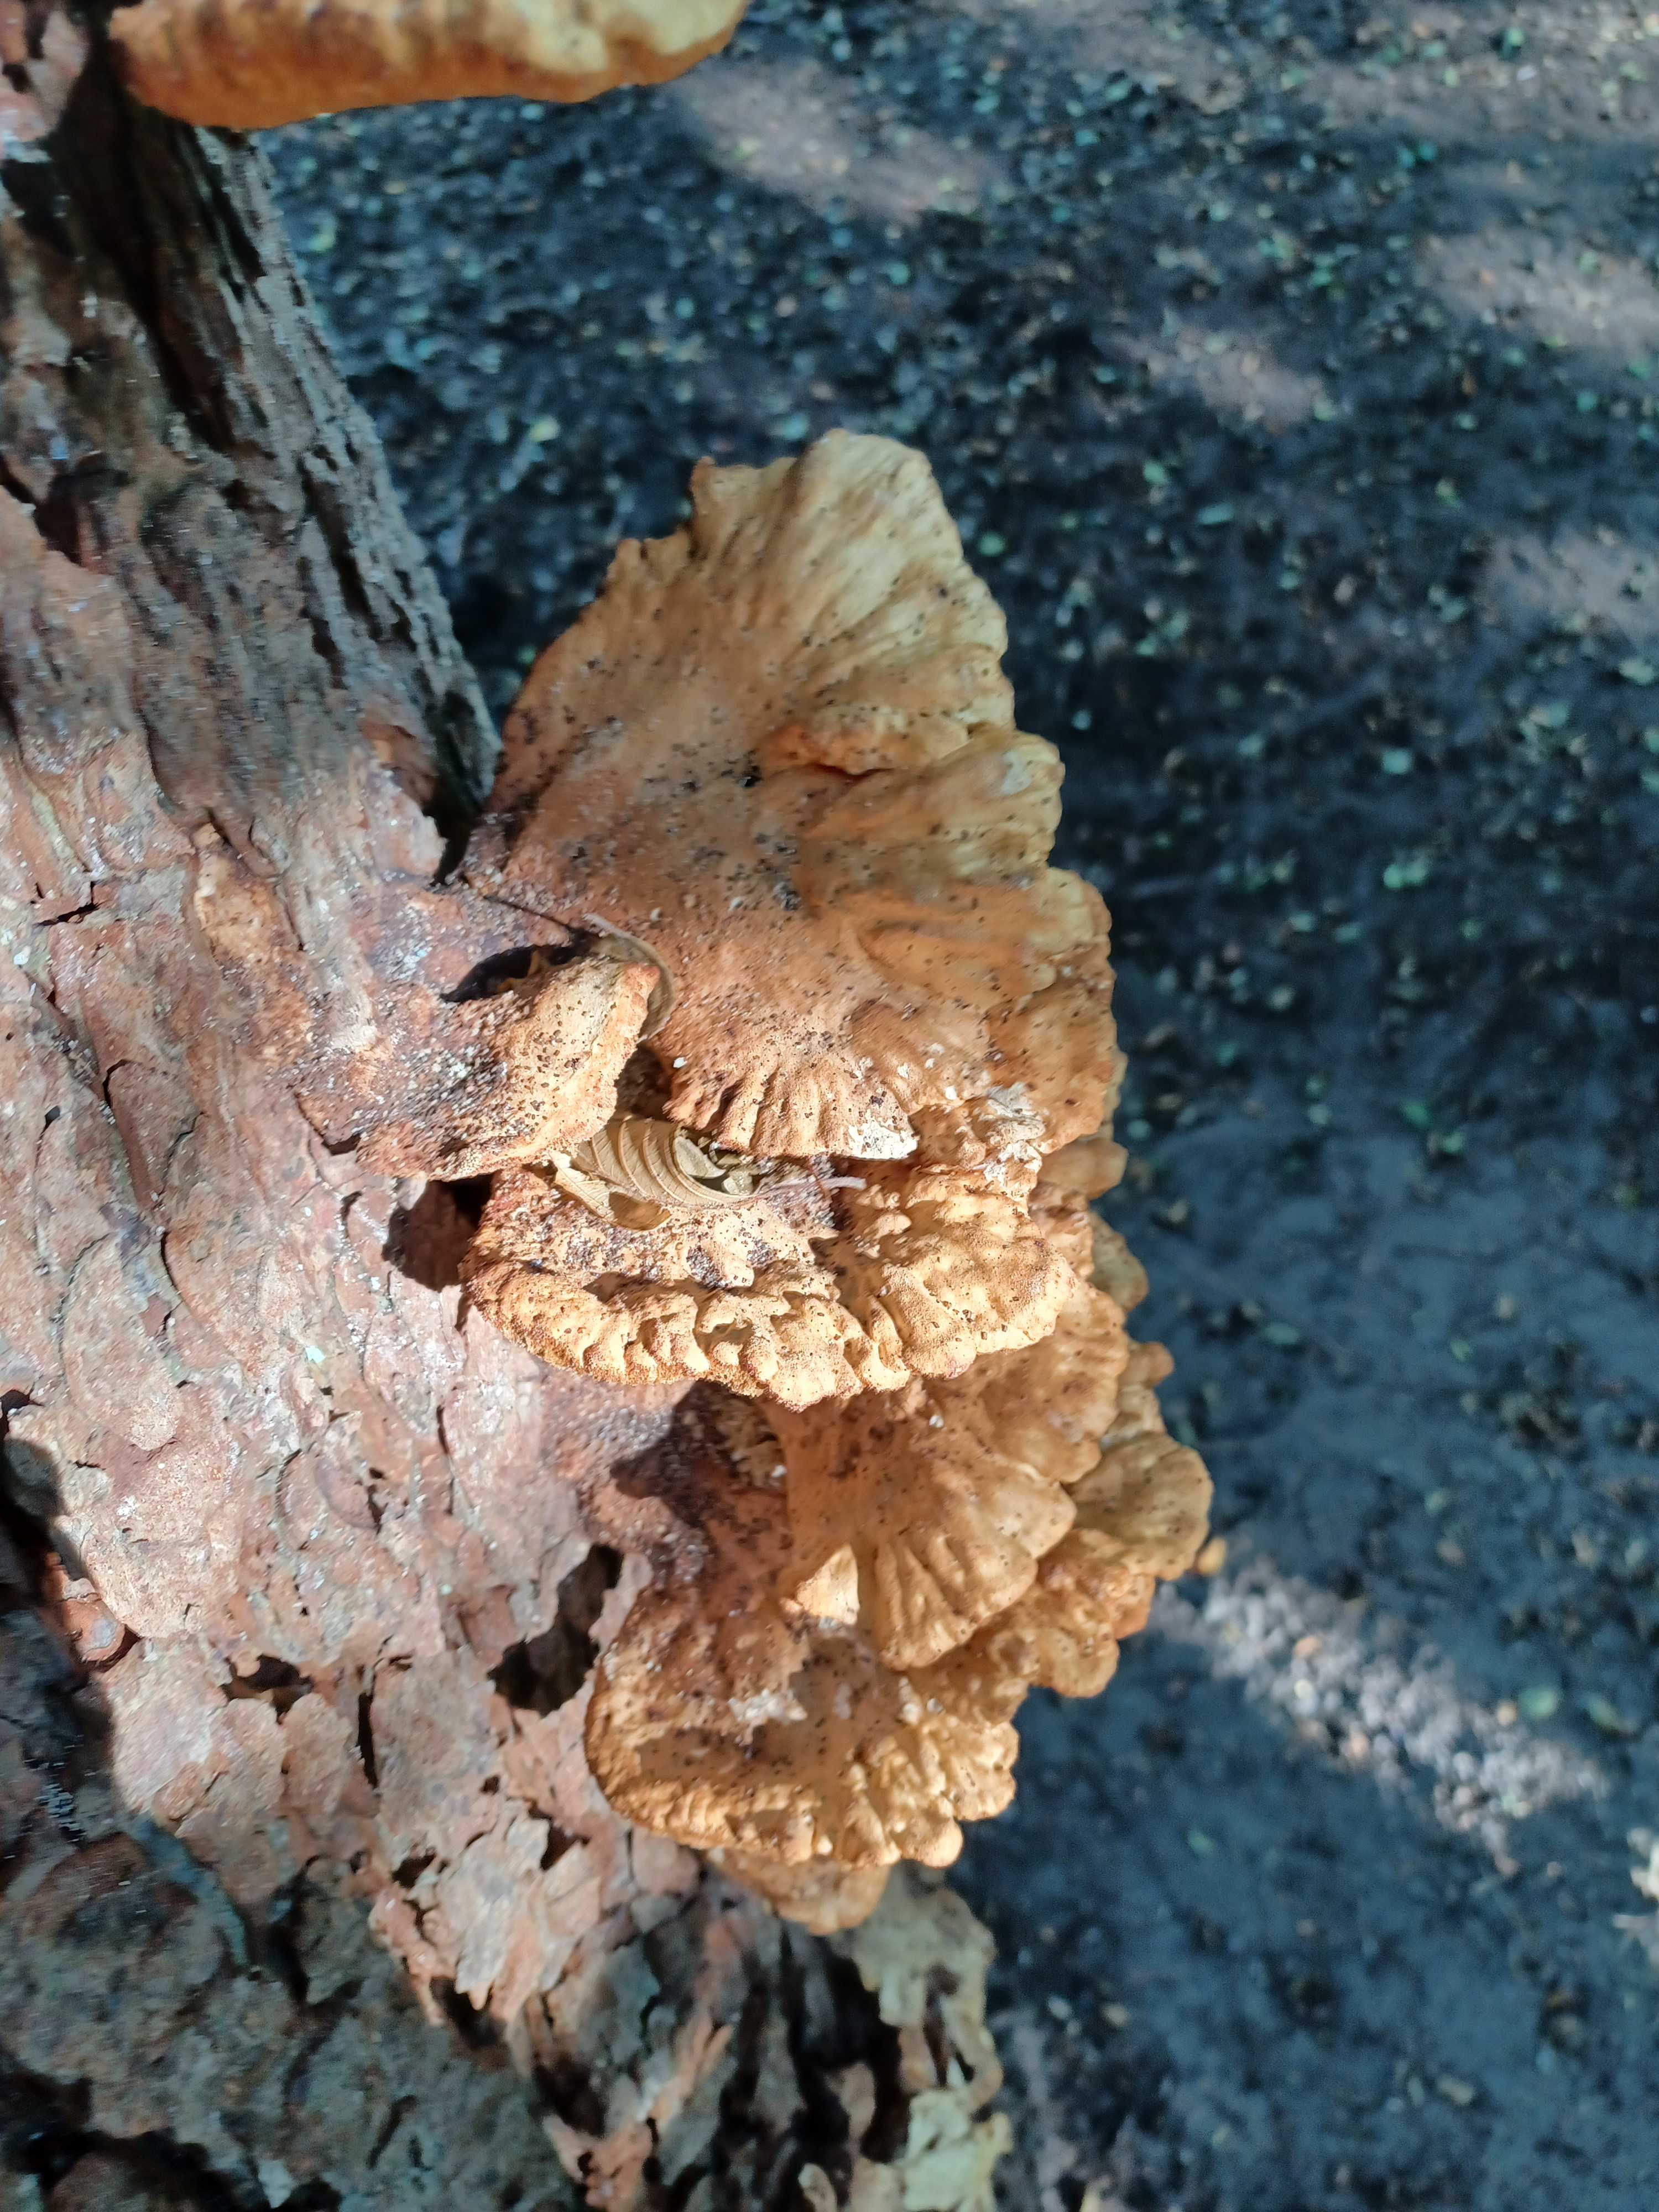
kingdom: Fungi
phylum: Basidiomycota
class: Agaricomycetes
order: Polyporales
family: Laetiporaceae
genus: Laetiporus
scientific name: Laetiporus sulphureus
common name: svovlporesvamp
